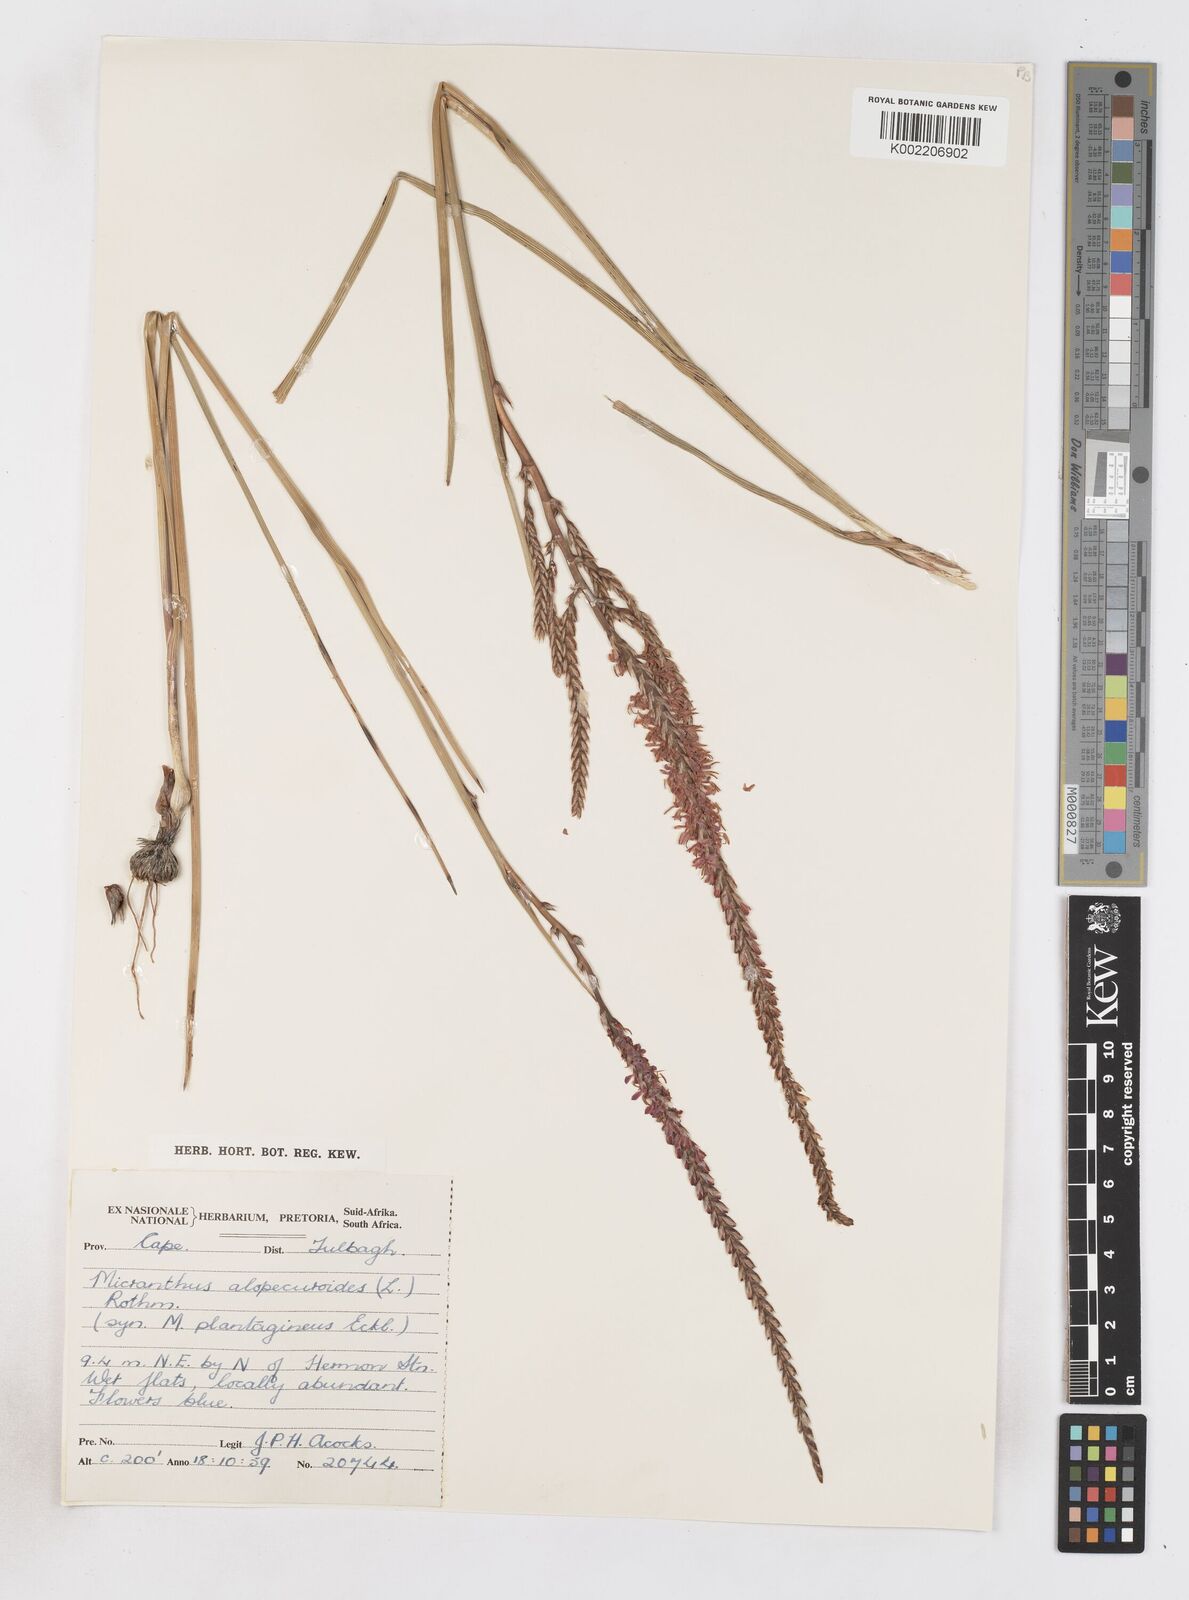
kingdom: Plantae
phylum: Tracheophyta
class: Liliopsida
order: Asparagales
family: Iridaceae
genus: Micranthus
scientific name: Micranthus plantagineus
